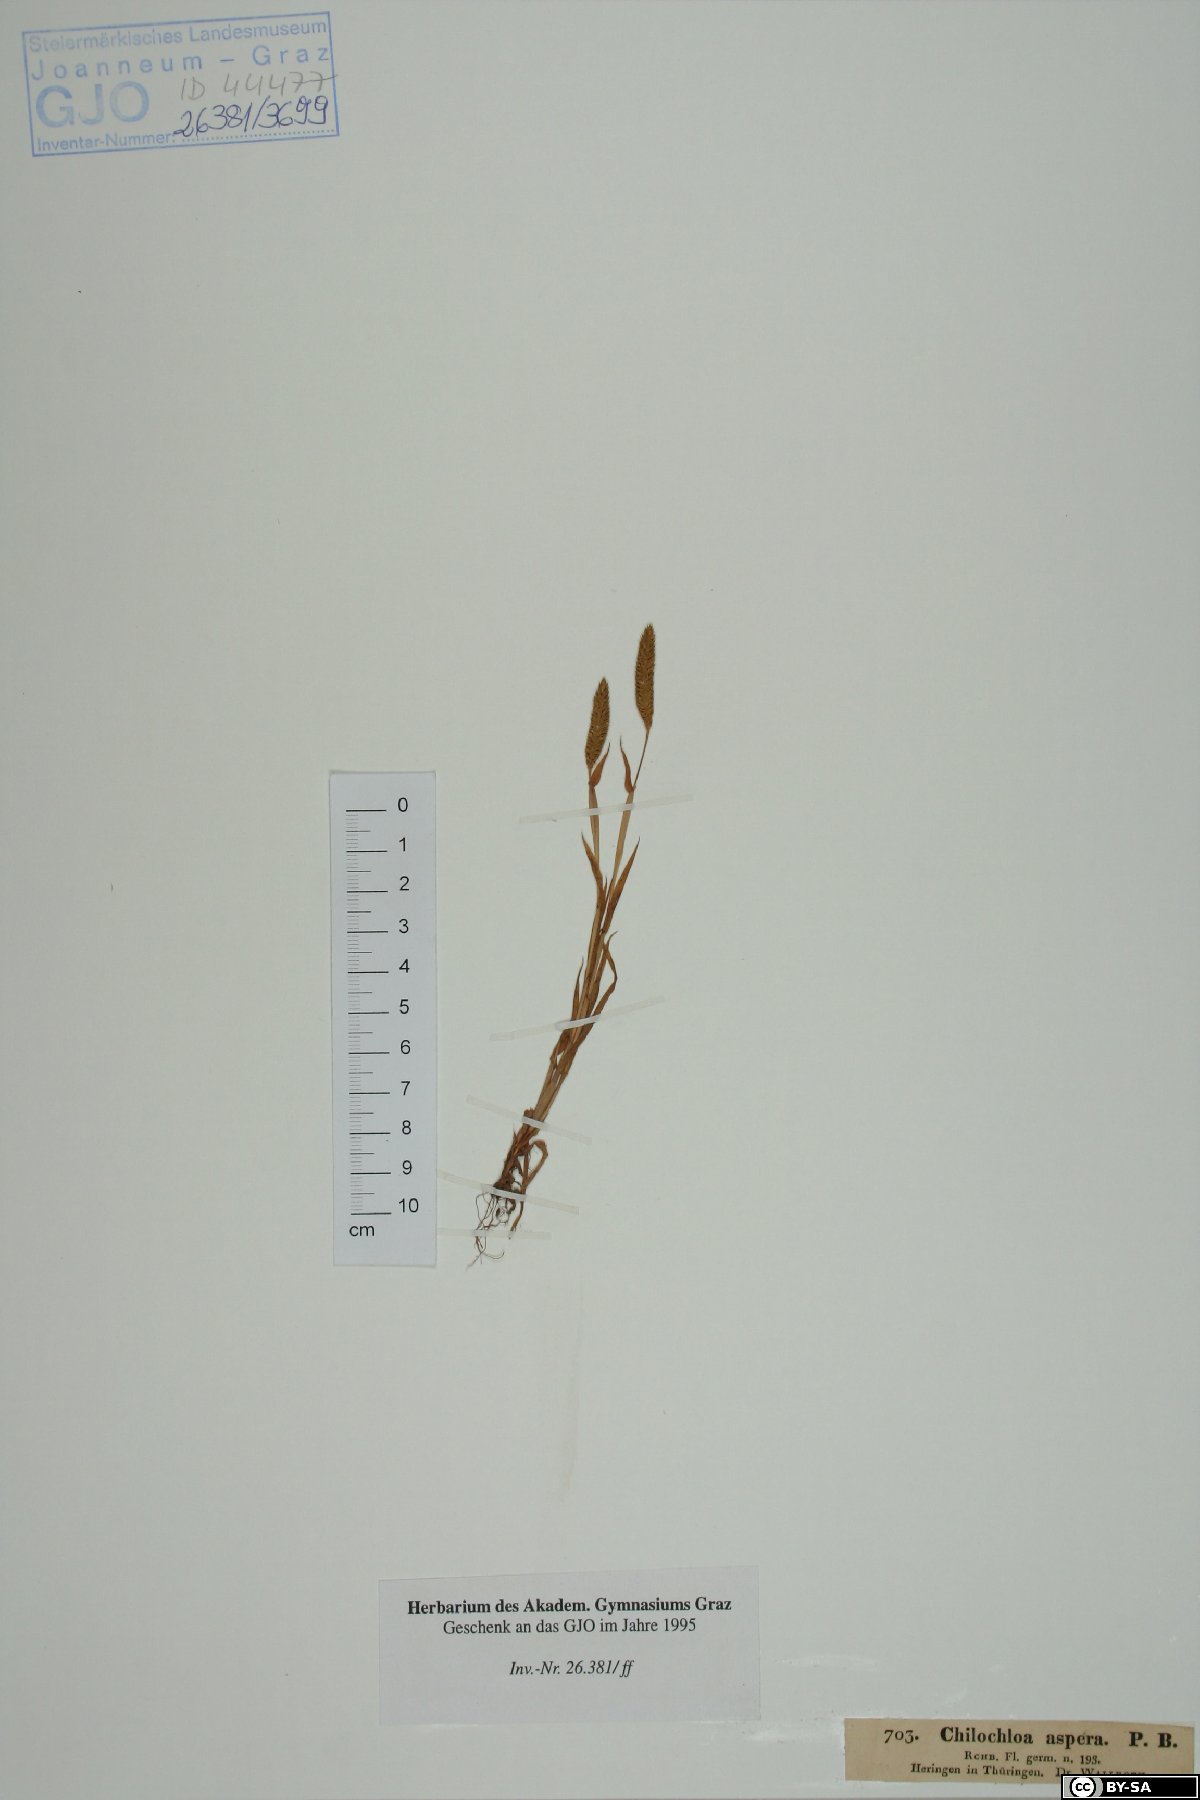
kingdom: Plantae
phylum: Tracheophyta
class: Liliopsida
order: Poales
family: Poaceae
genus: Phleum
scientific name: Phleum paniculatum
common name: British timothy
